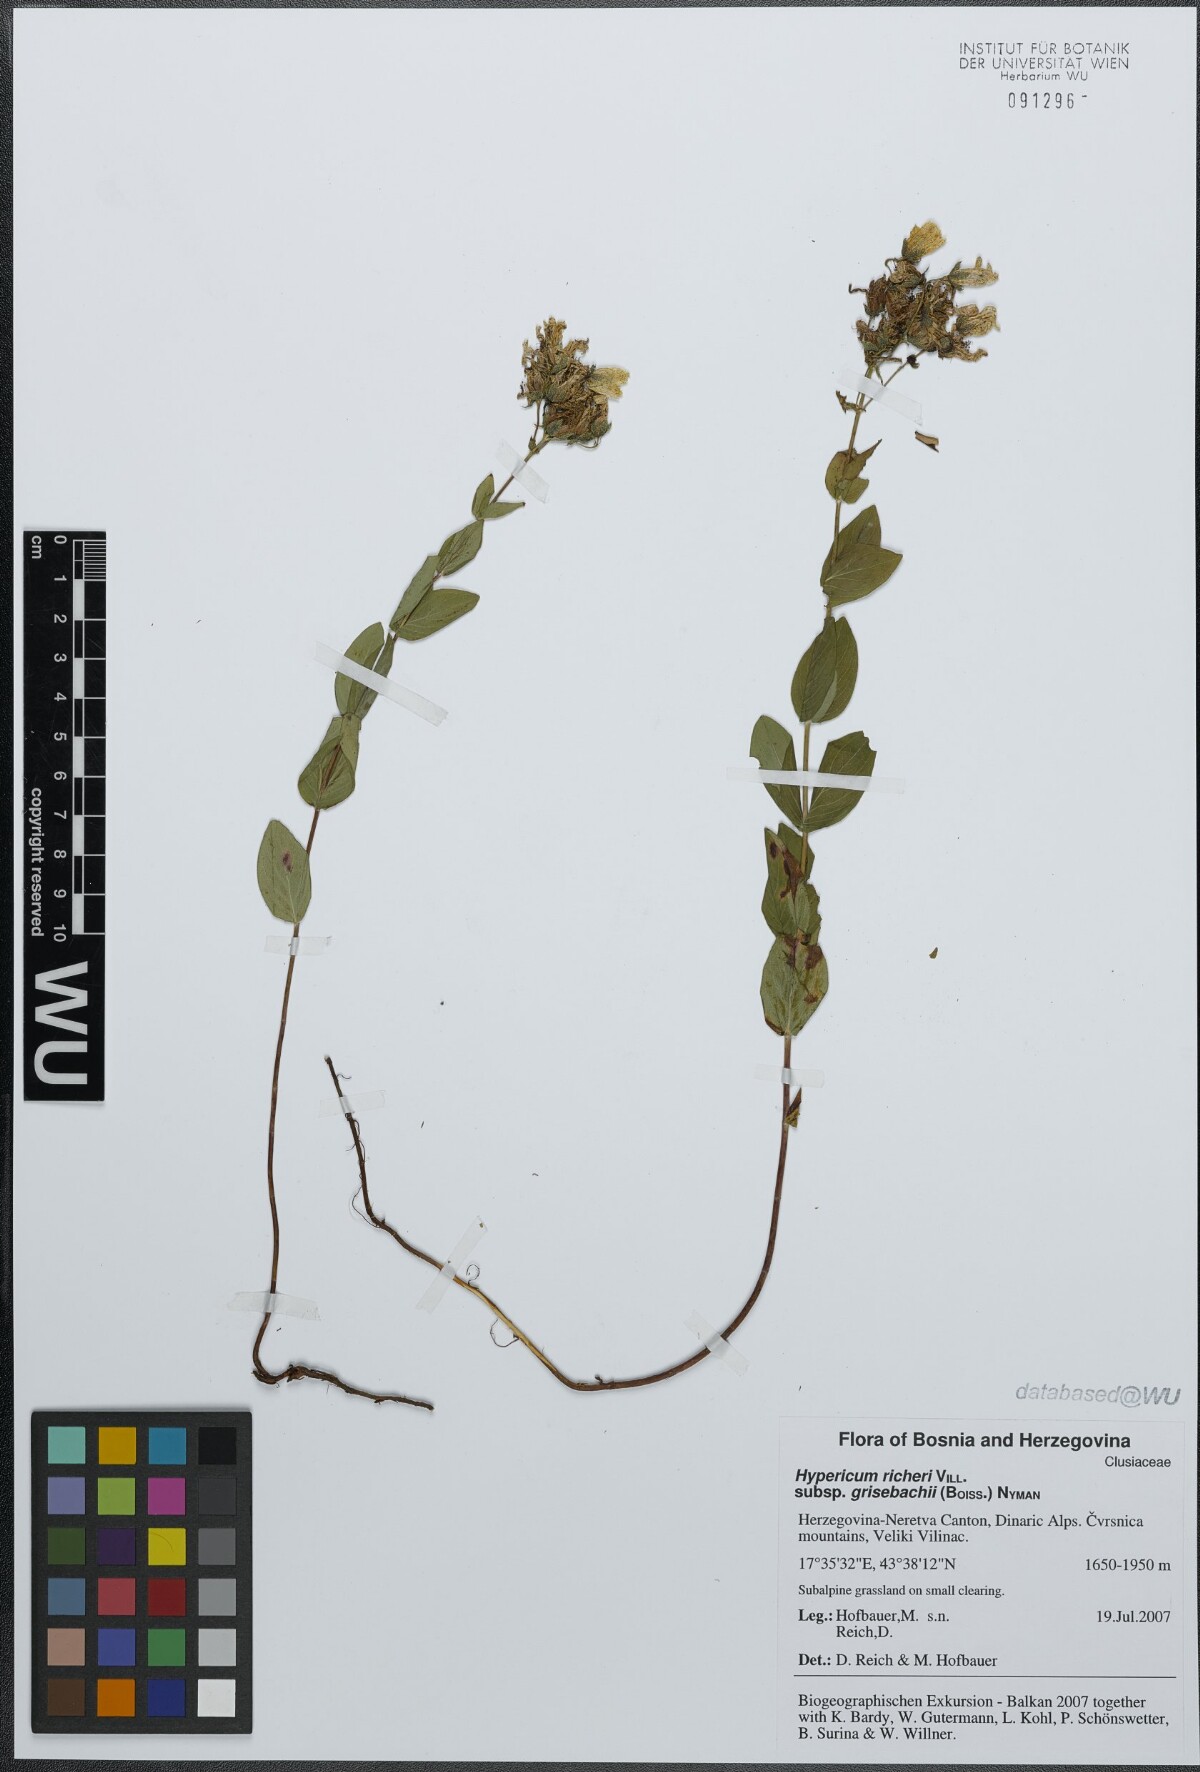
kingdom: Plantae
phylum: Tracheophyta
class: Magnoliopsida
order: Malpighiales
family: Hypericaceae
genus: Hypericum
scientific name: Hypericum richeri
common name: Alpine st john's-wort
